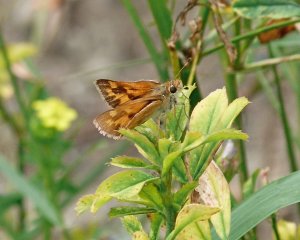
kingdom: Animalia
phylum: Arthropoda
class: Insecta
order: Lepidoptera
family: Hesperiidae
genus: Ochlodes
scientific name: Ochlodes sylvanoides
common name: Woodland Skipper
